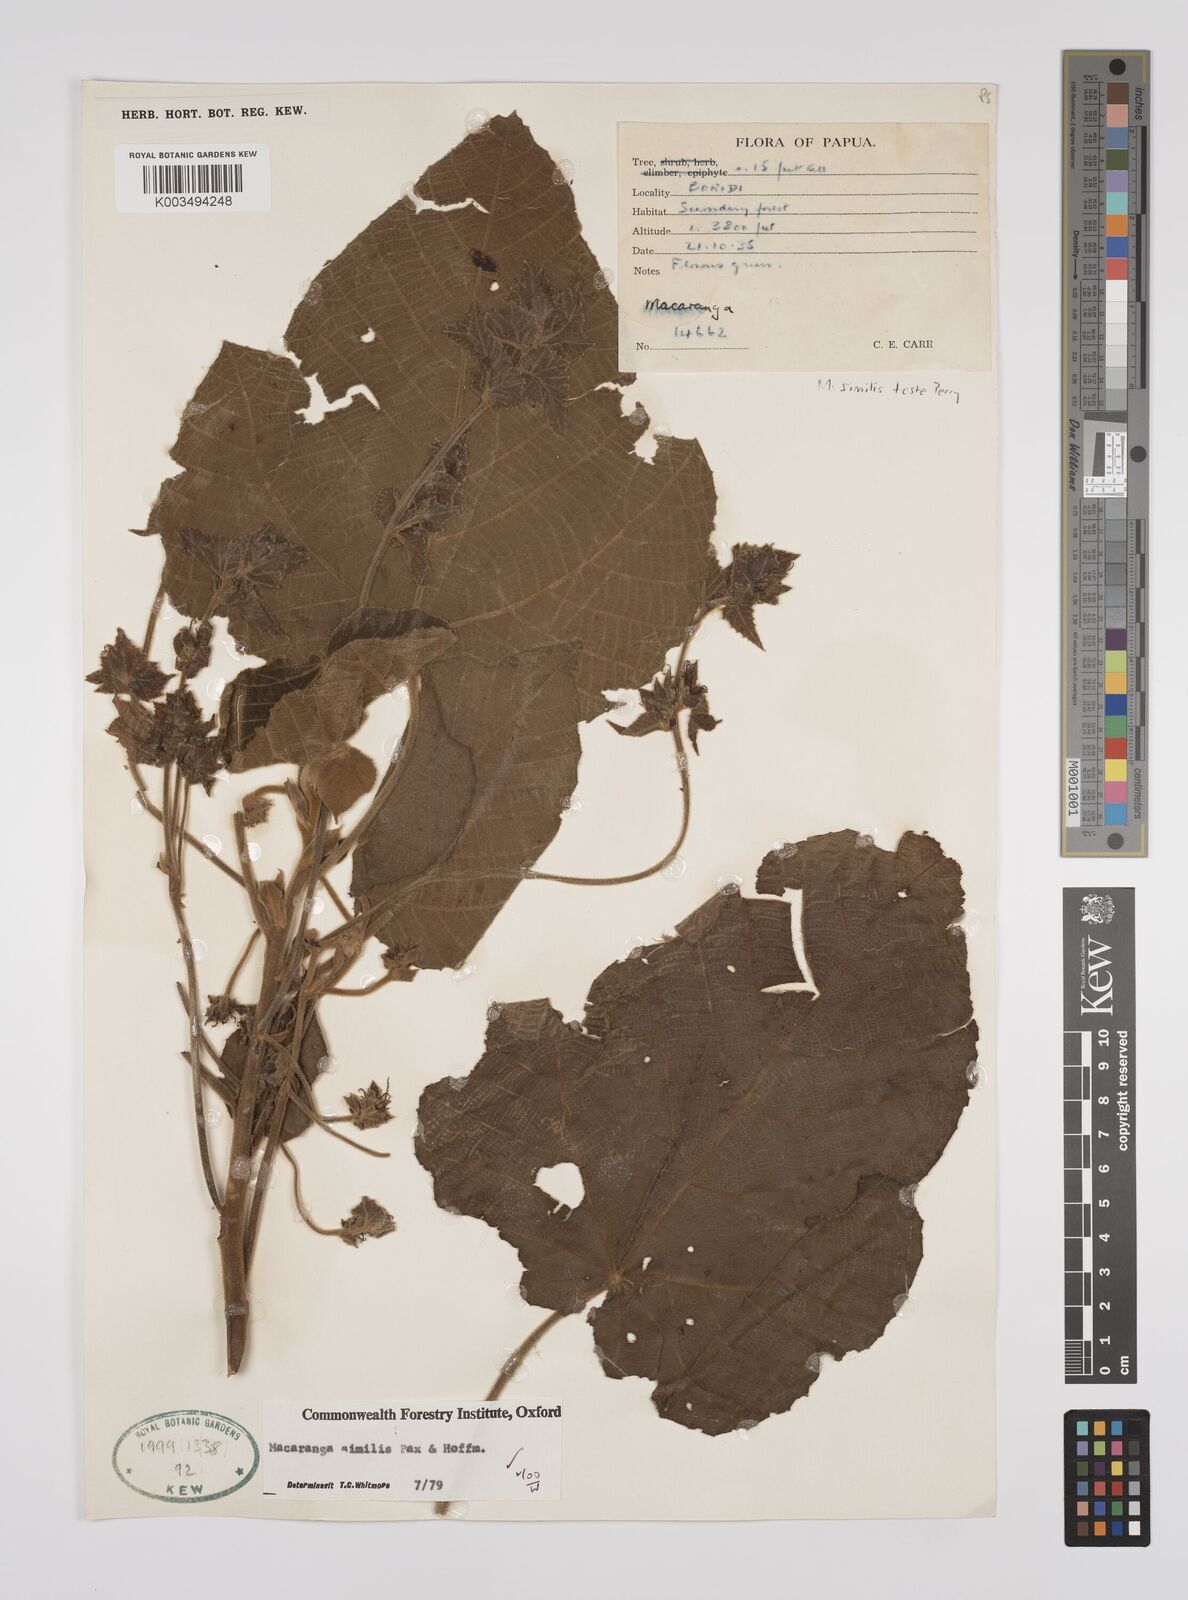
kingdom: Plantae
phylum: Tracheophyta
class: Magnoliopsida
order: Malpighiales
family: Euphorbiaceae
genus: Macaranga
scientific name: Macaranga similis
